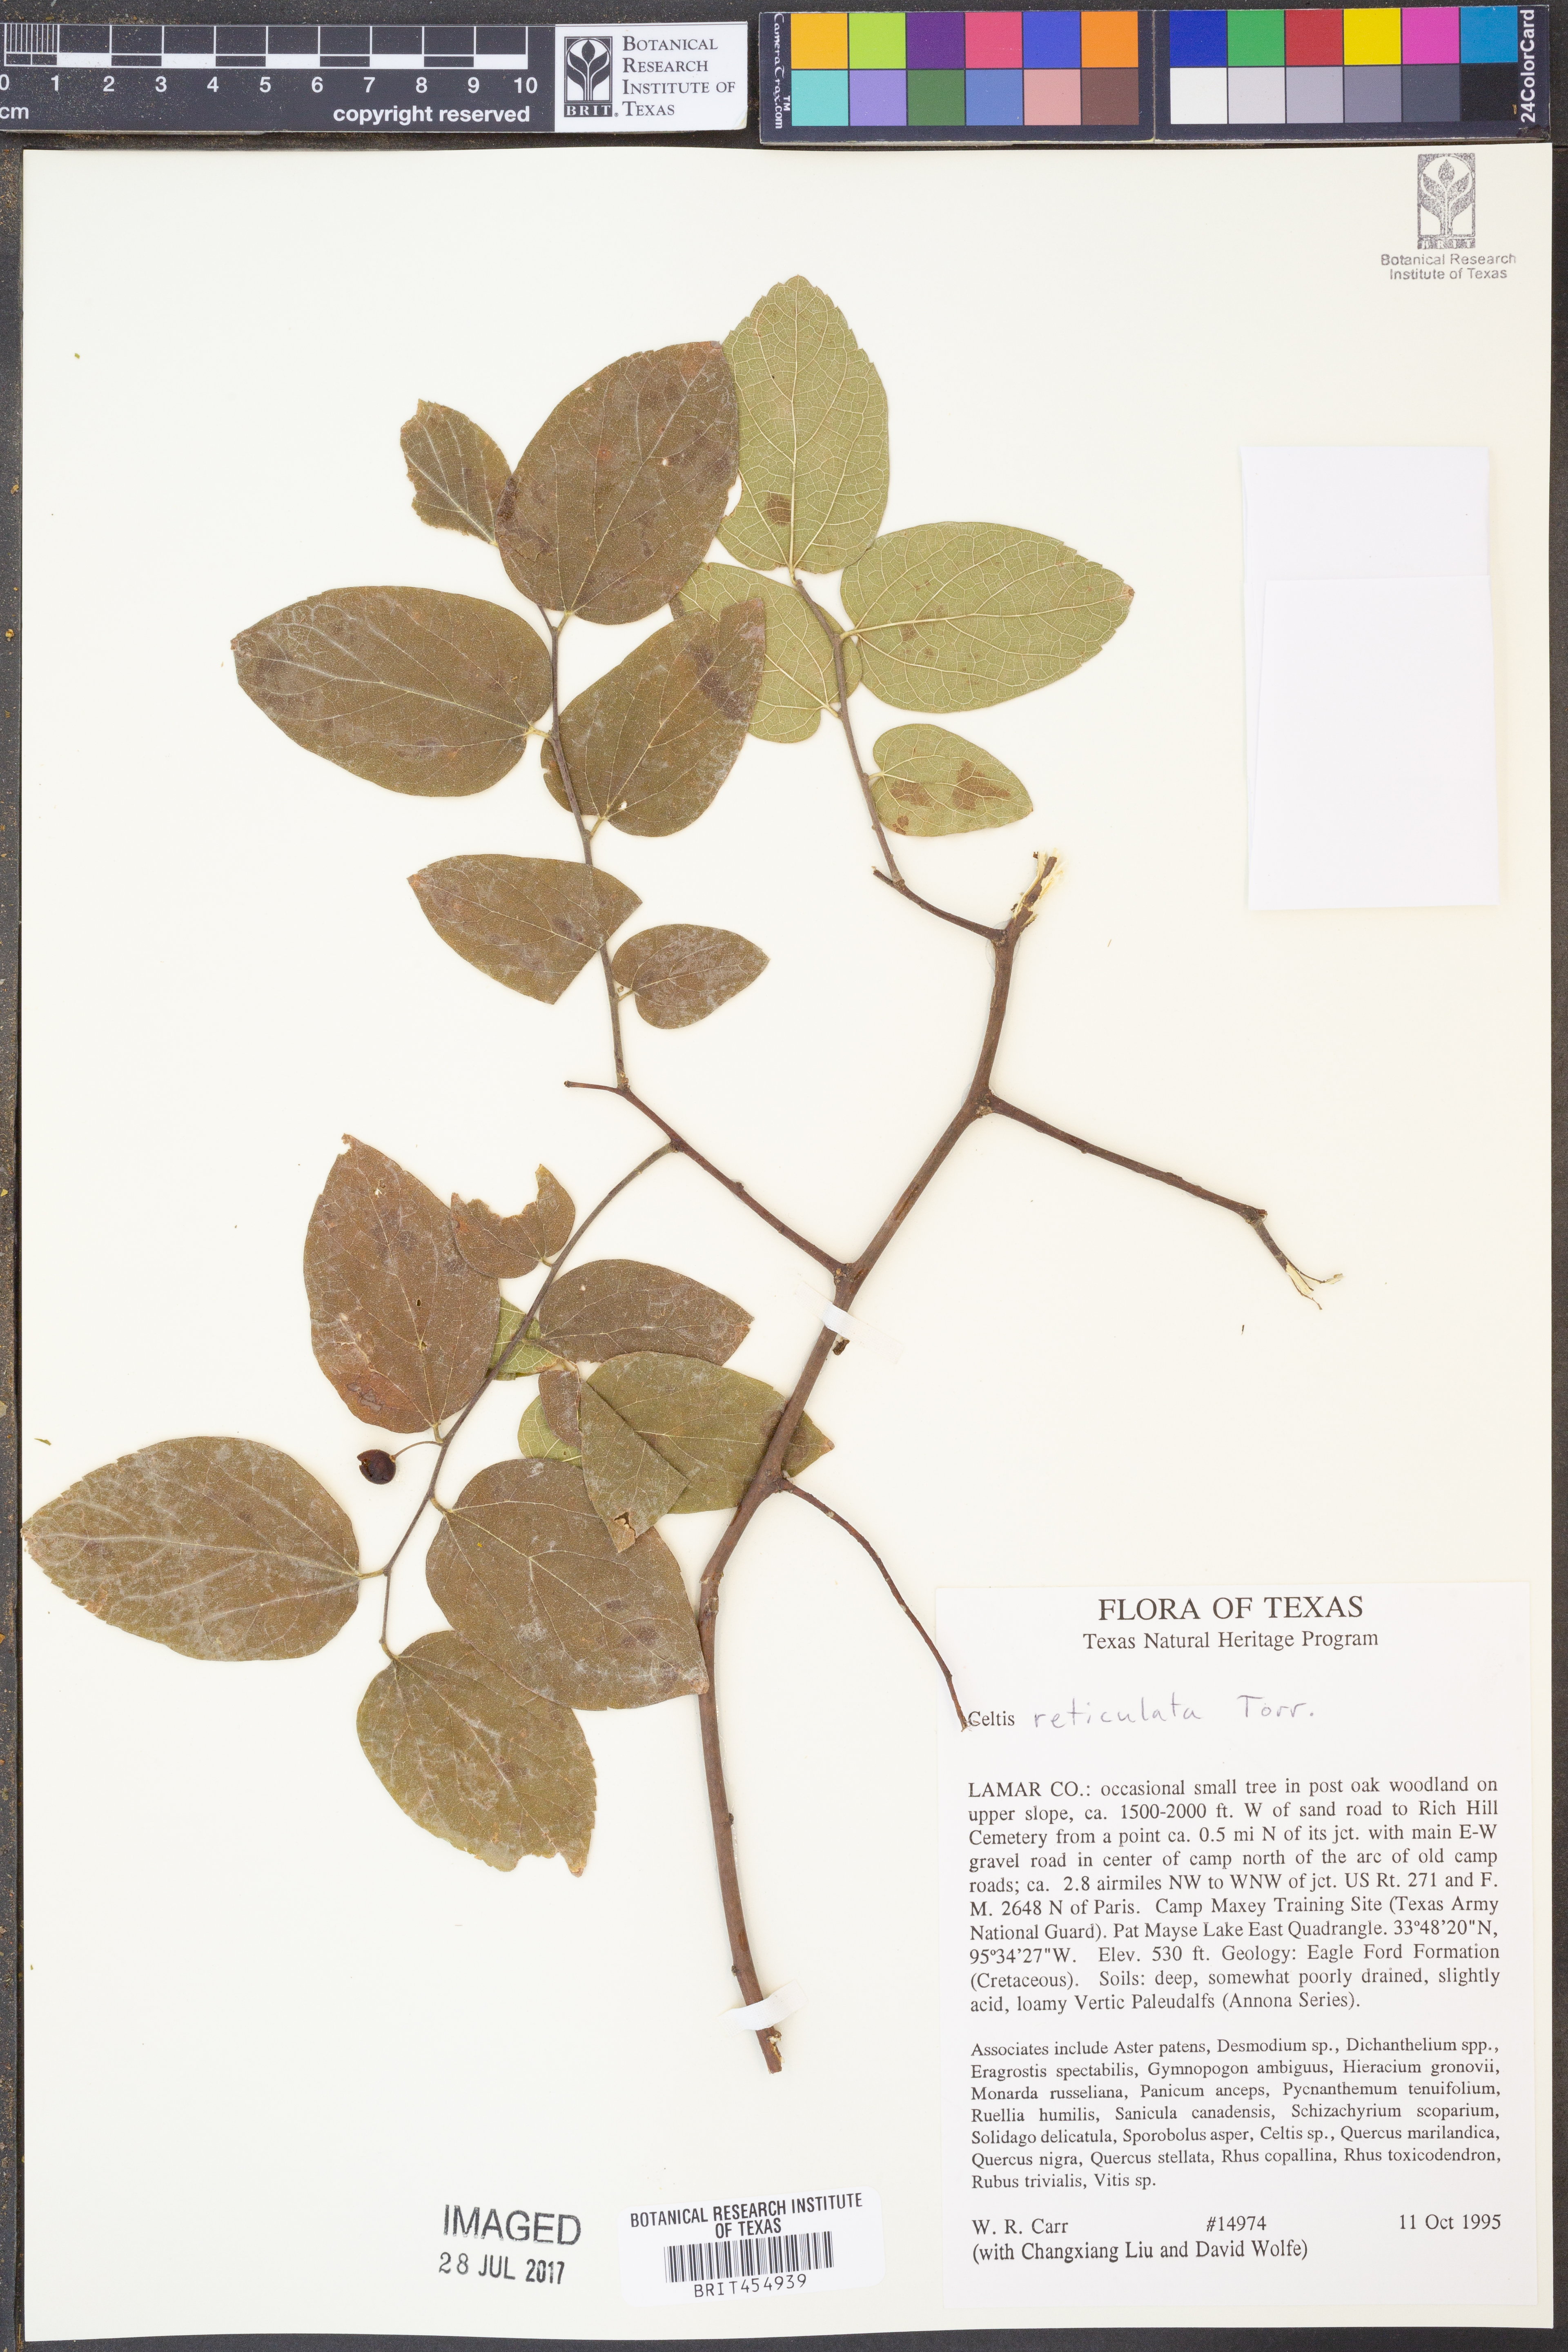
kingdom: Plantae
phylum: Tracheophyta
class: Magnoliopsida
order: Rosales
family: Cannabaceae
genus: Celtis
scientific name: Celtis reticulata
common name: Netleaf hackberry
